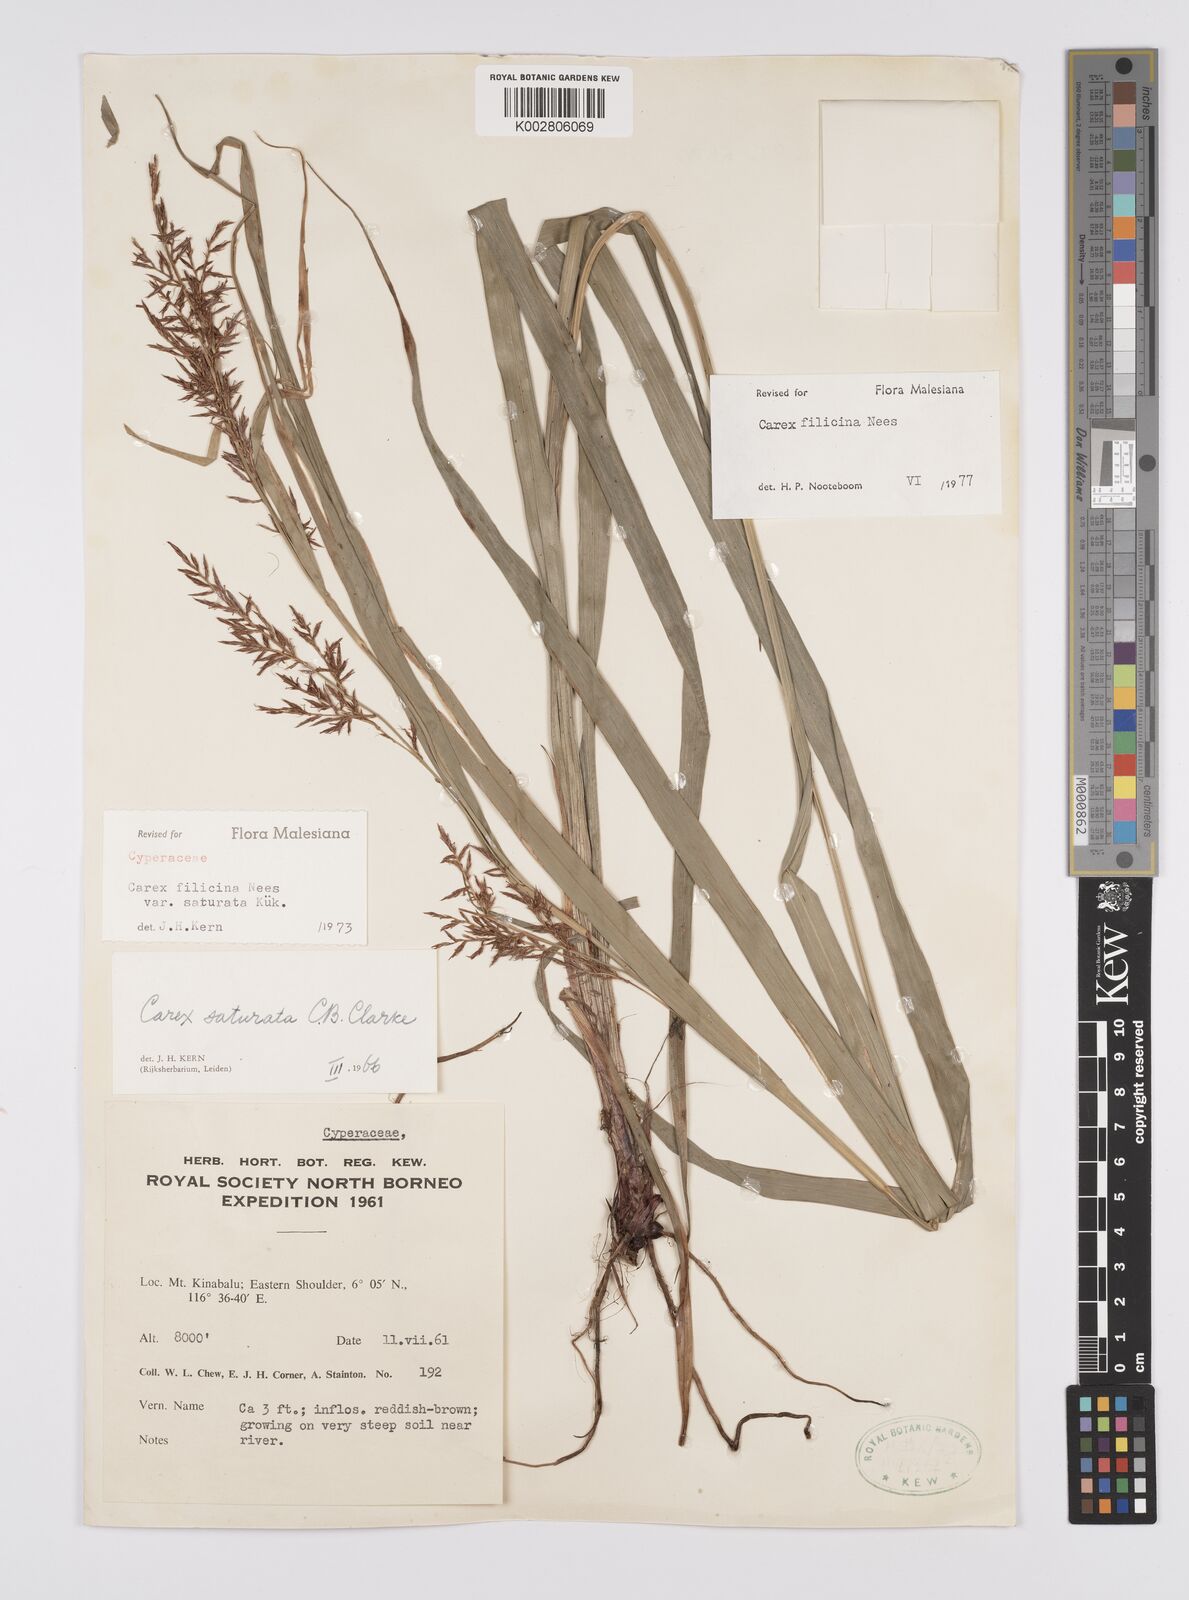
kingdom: Plantae
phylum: Tracheophyta
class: Liliopsida
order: Poales
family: Cyperaceae
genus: Carex
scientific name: Carex filicina
